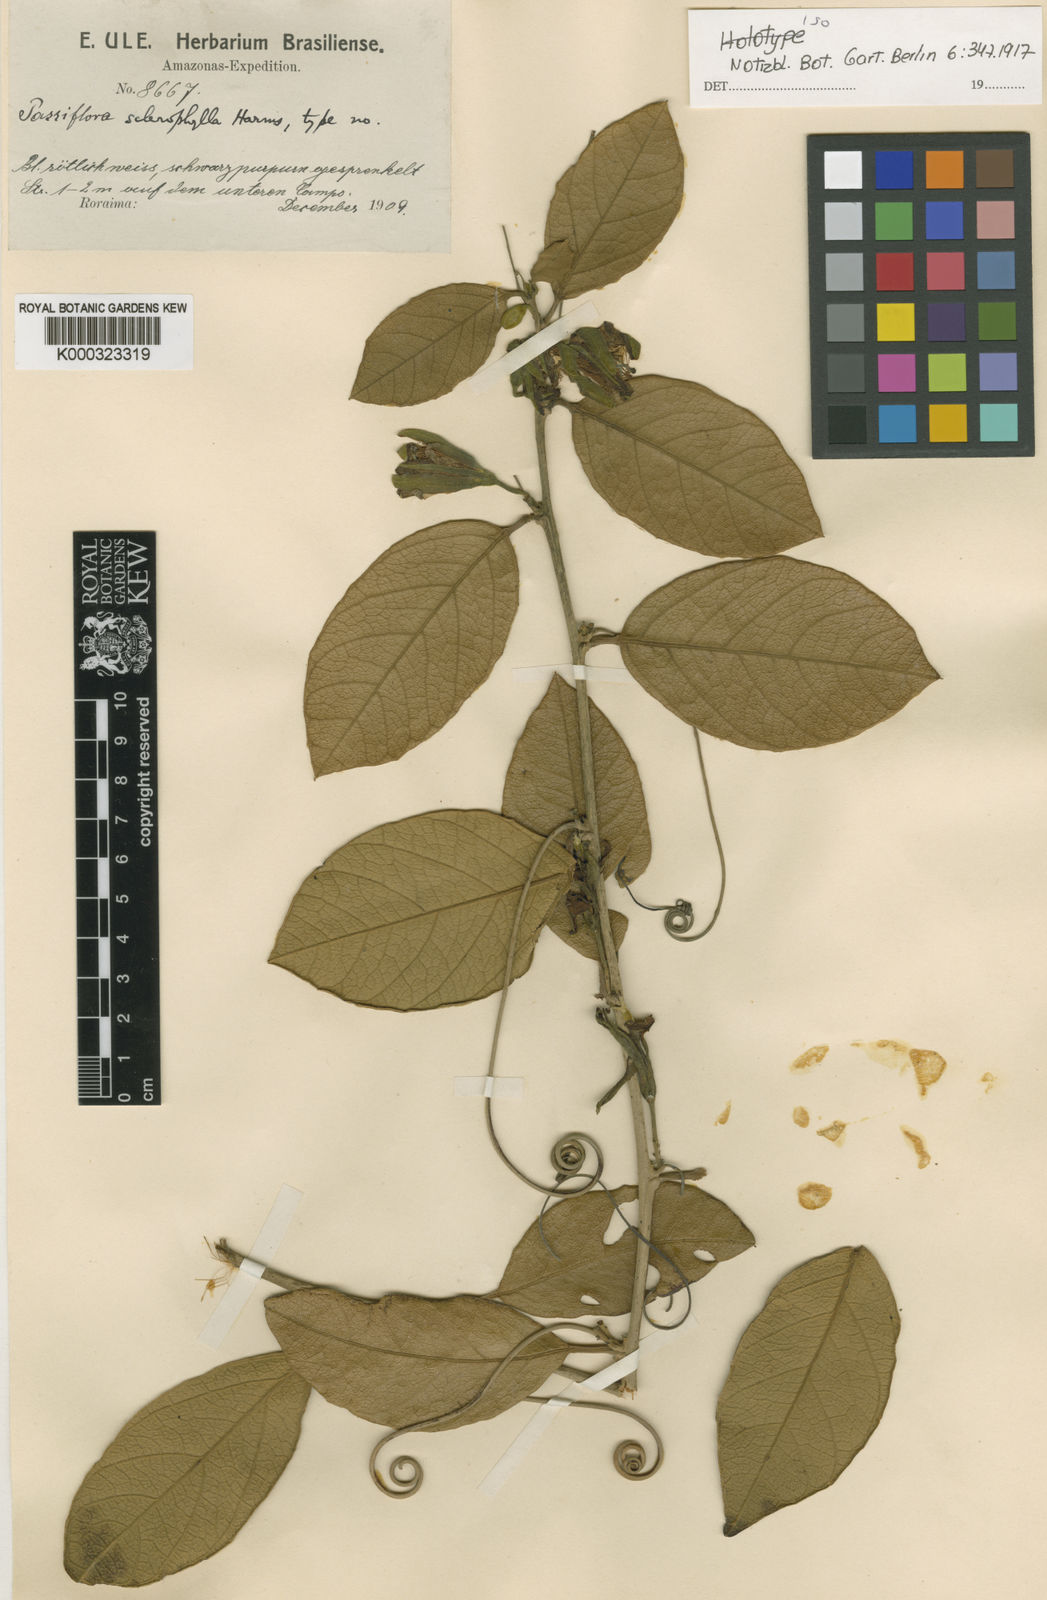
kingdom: Plantae
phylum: Tracheophyta
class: Magnoliopsida
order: Malpighiales
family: Passifloraceae
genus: Passiflora
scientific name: Passiflora sclerophylla
